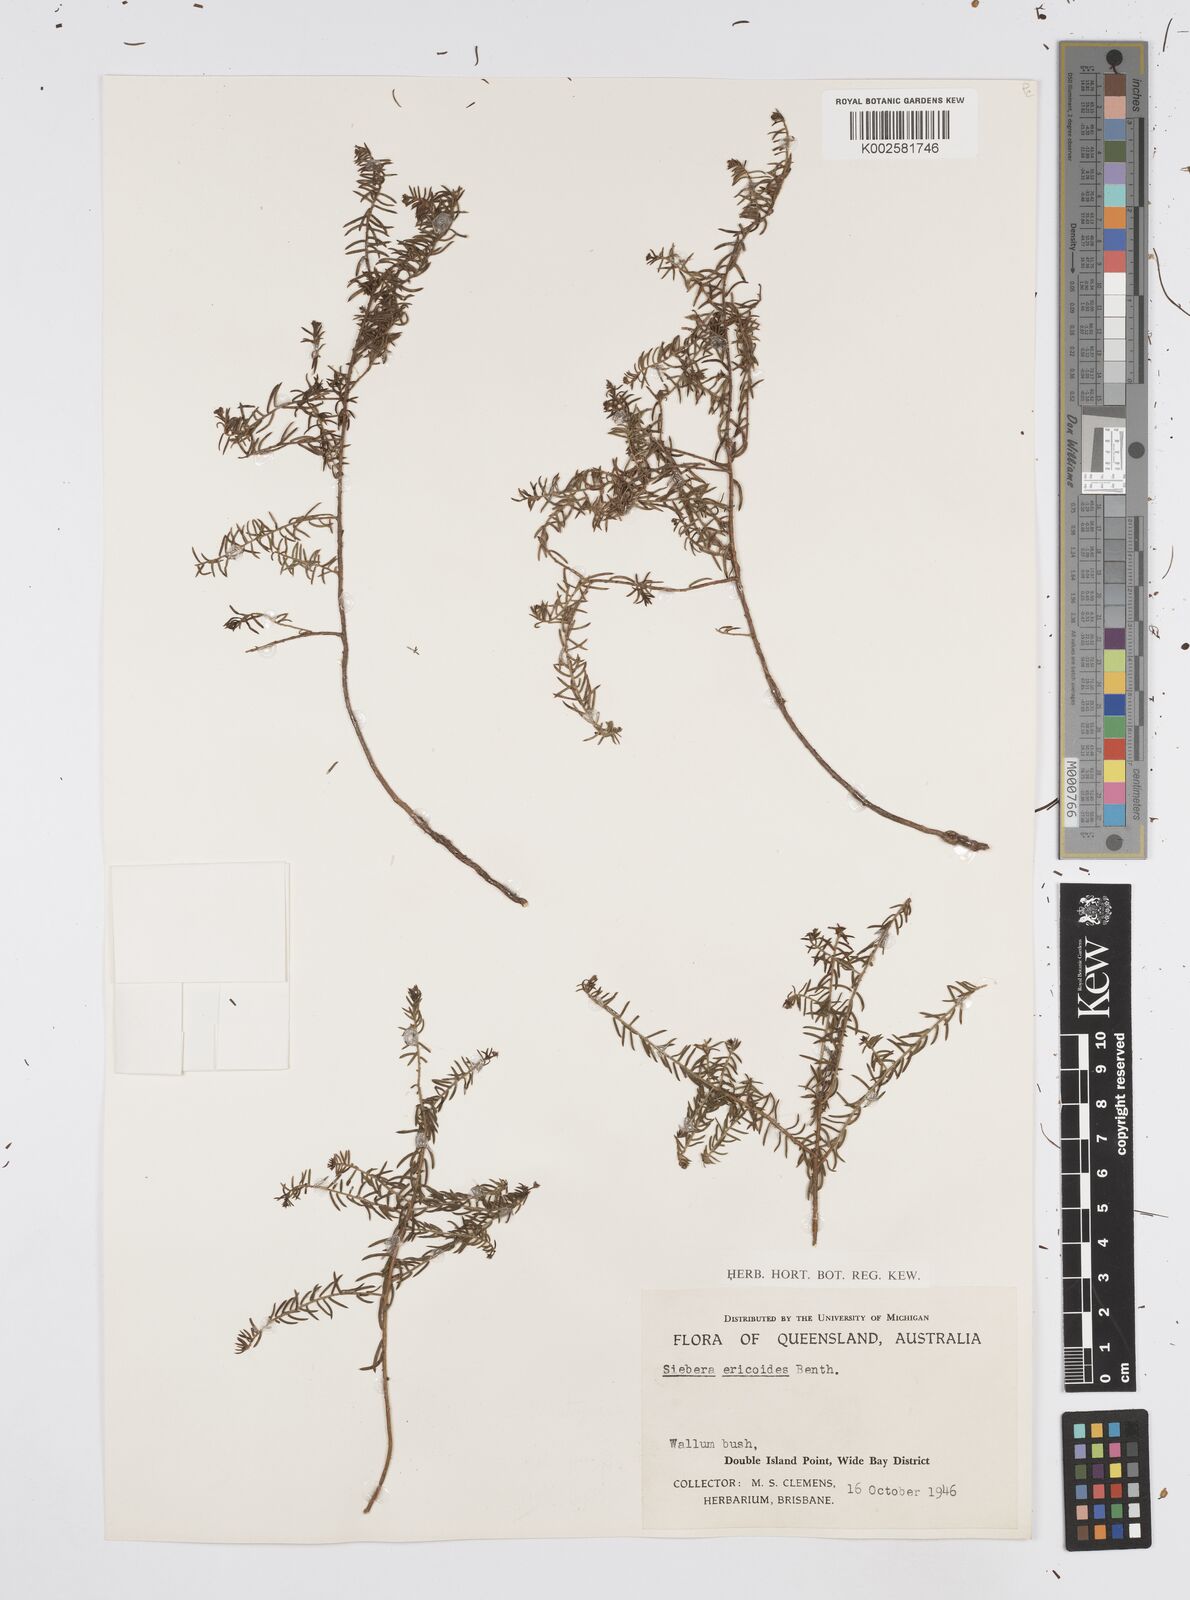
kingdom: Plantae
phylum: Tracheophyta
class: Magnoliopsida
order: Apiales
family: Apiaceae
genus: Platysace
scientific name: Platysace ericoides
